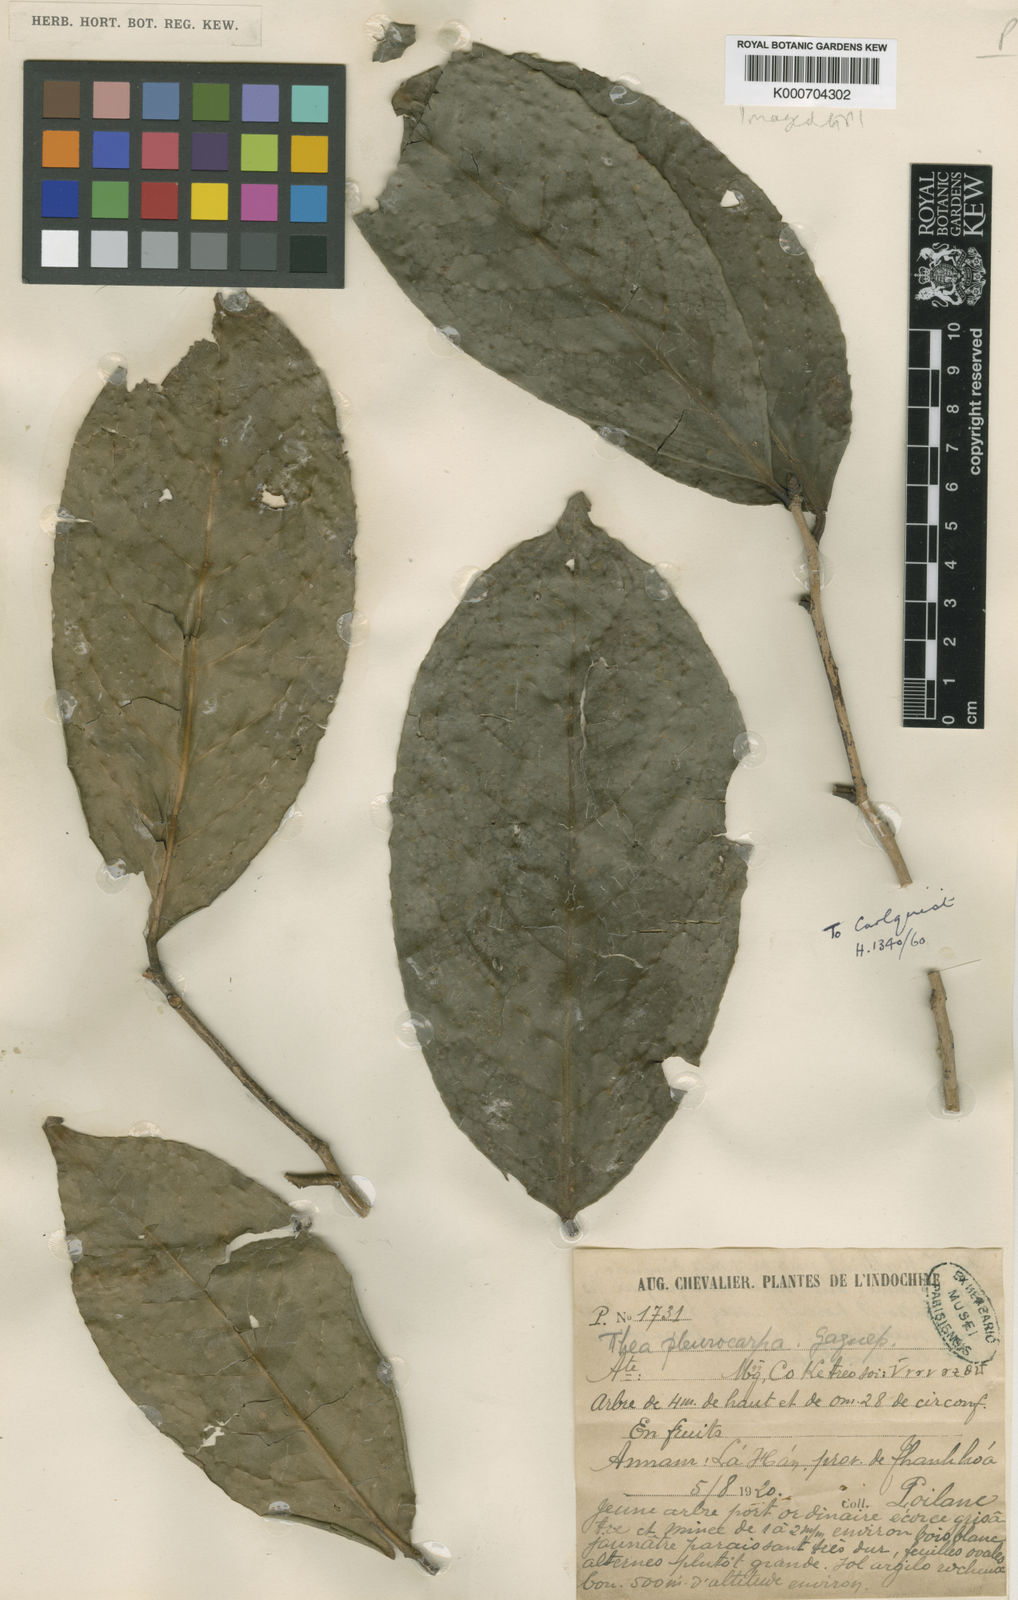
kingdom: Plantae
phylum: Tracheophyta
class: Magnoliopsida
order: Ericales
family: Theaceae
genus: Camellia
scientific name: Camellia pleurocarpa
